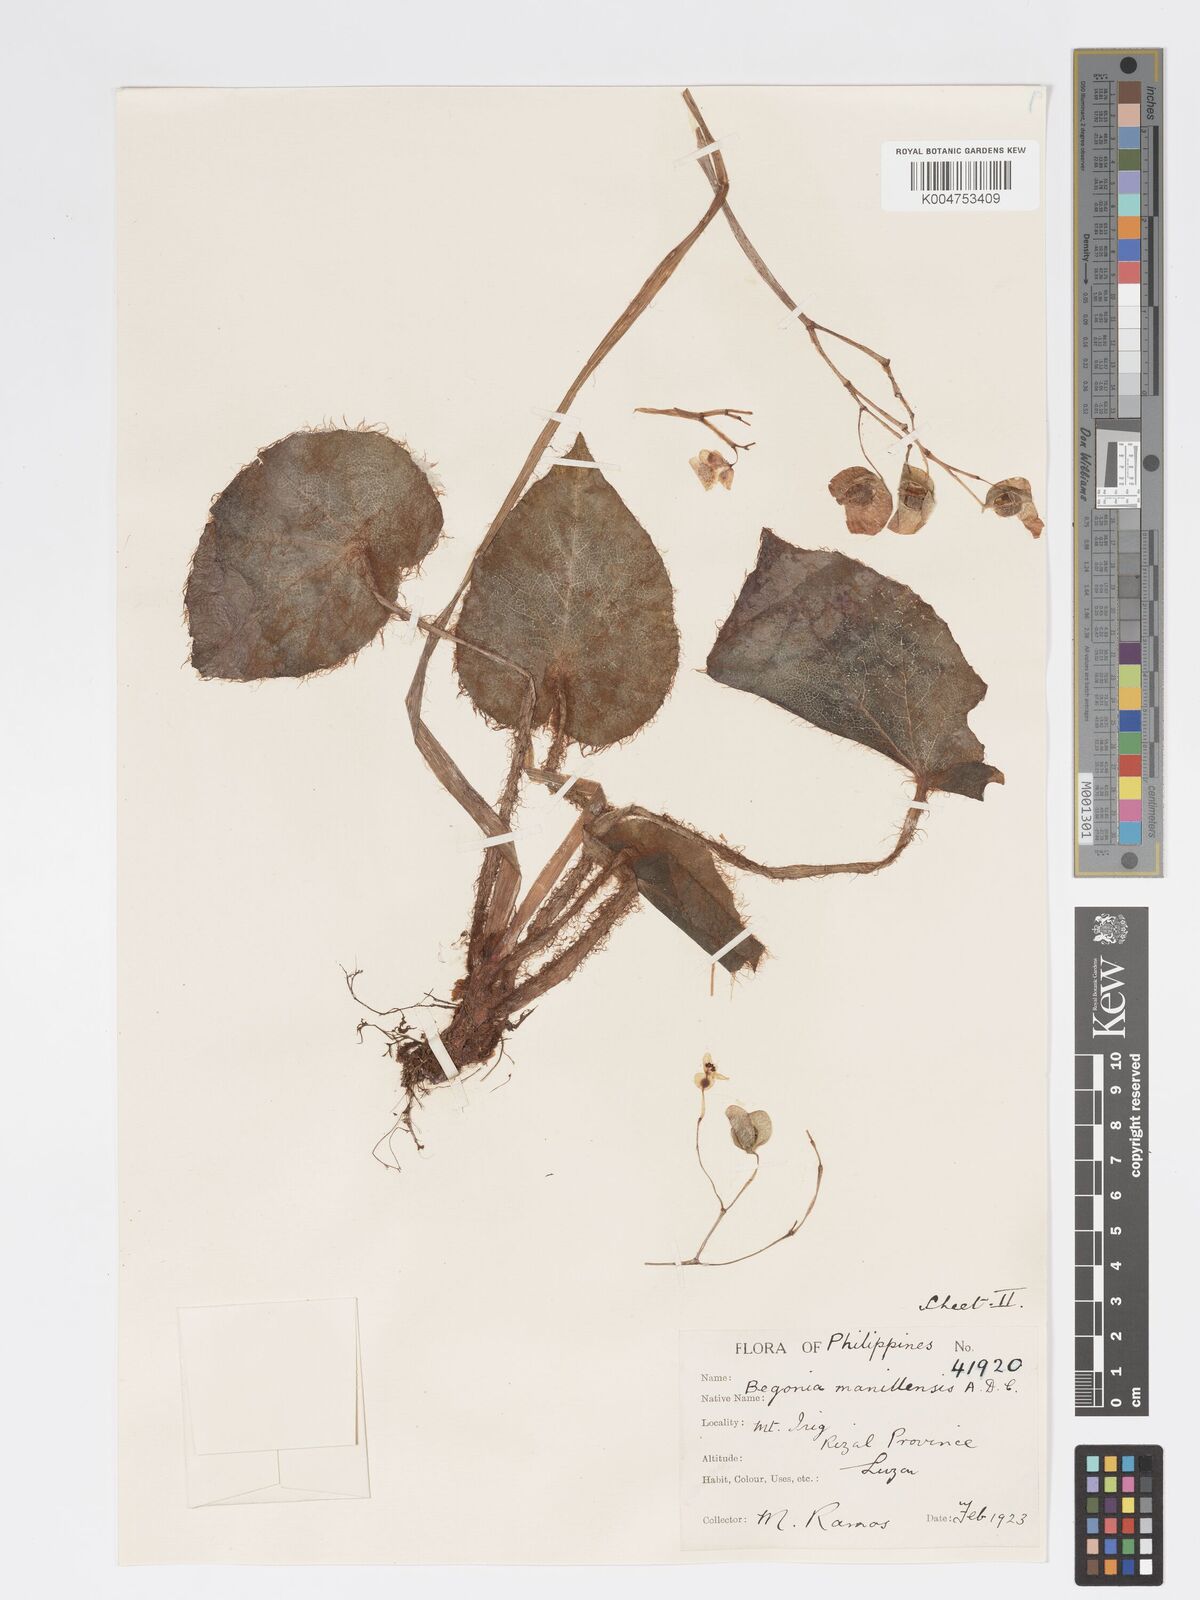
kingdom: Plantae
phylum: Tracheophyta
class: Magnoliopsida
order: Cucurbitales
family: Begoniaceae
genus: Begonia
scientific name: Begonia manillensis
